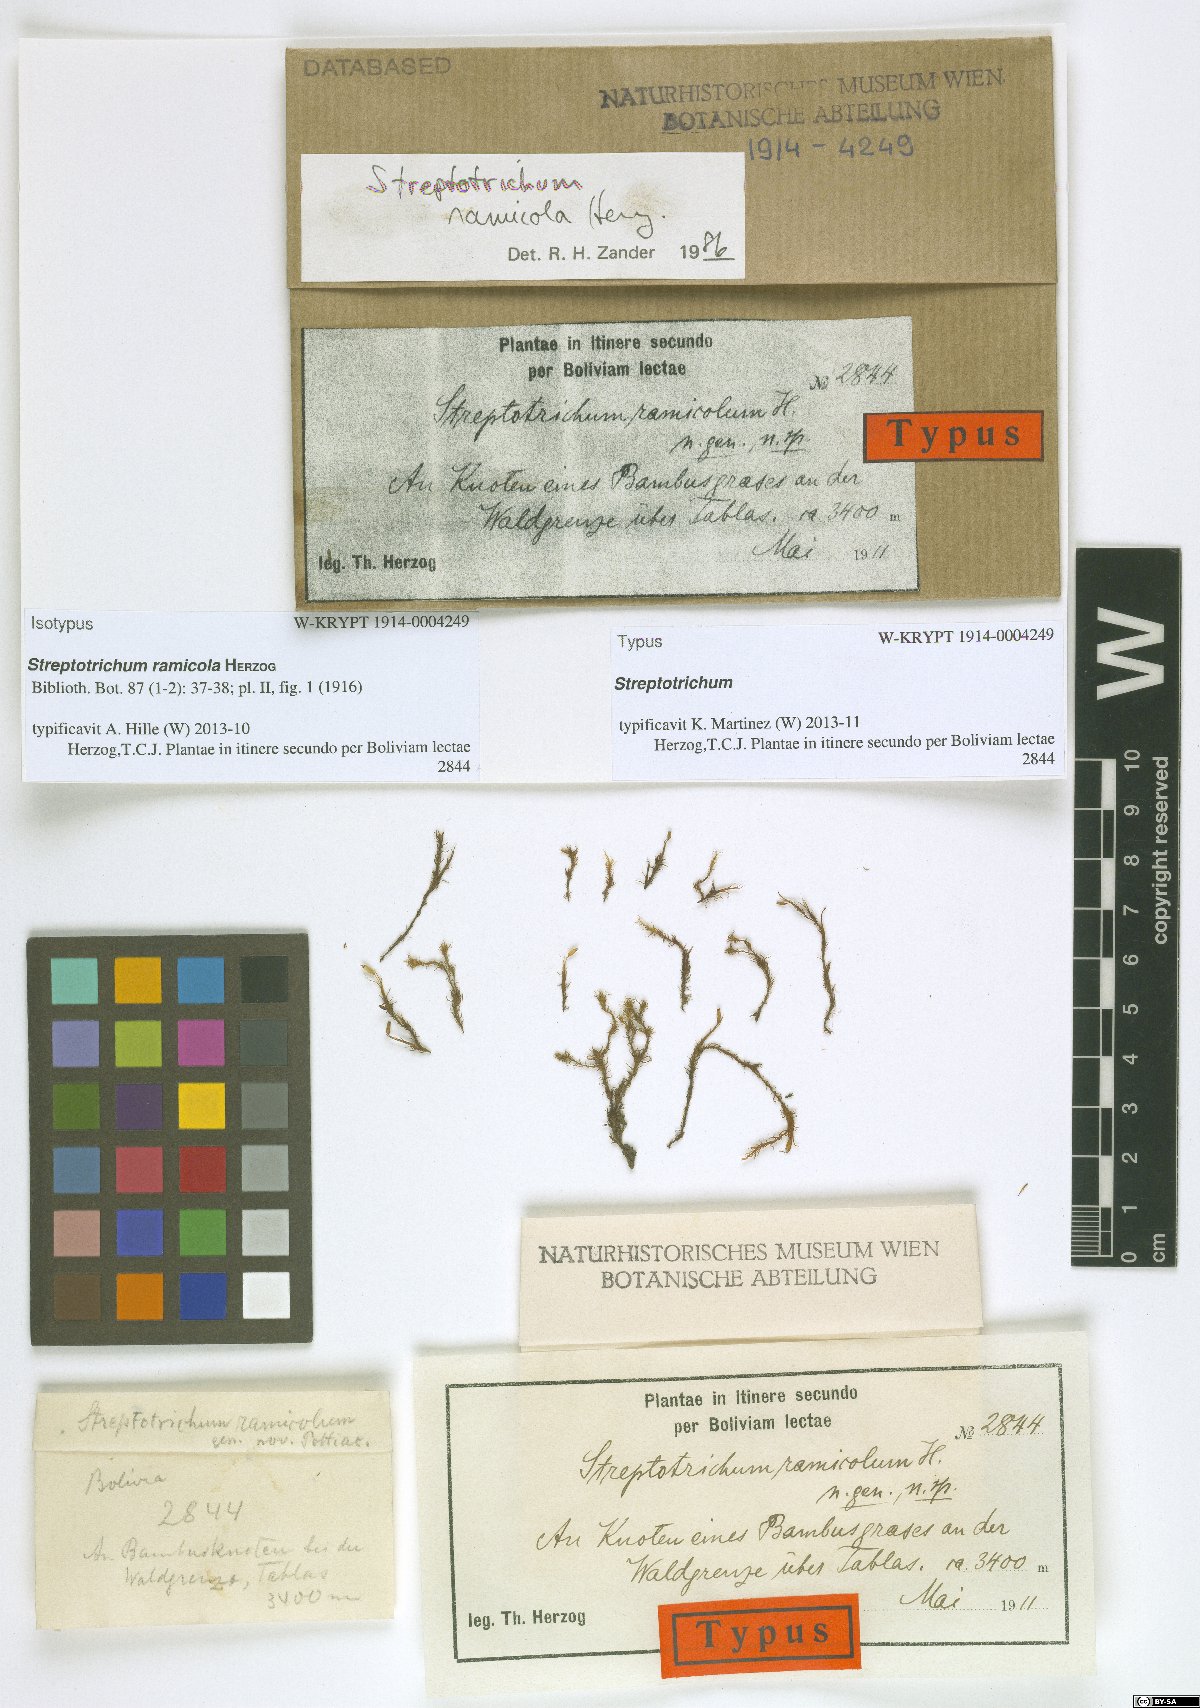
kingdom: Plantae
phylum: Bryophyta
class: Bryopsida
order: Pottiales
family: Pottiaceae
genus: Streptotrichum
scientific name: Streptotrichum ramicola
